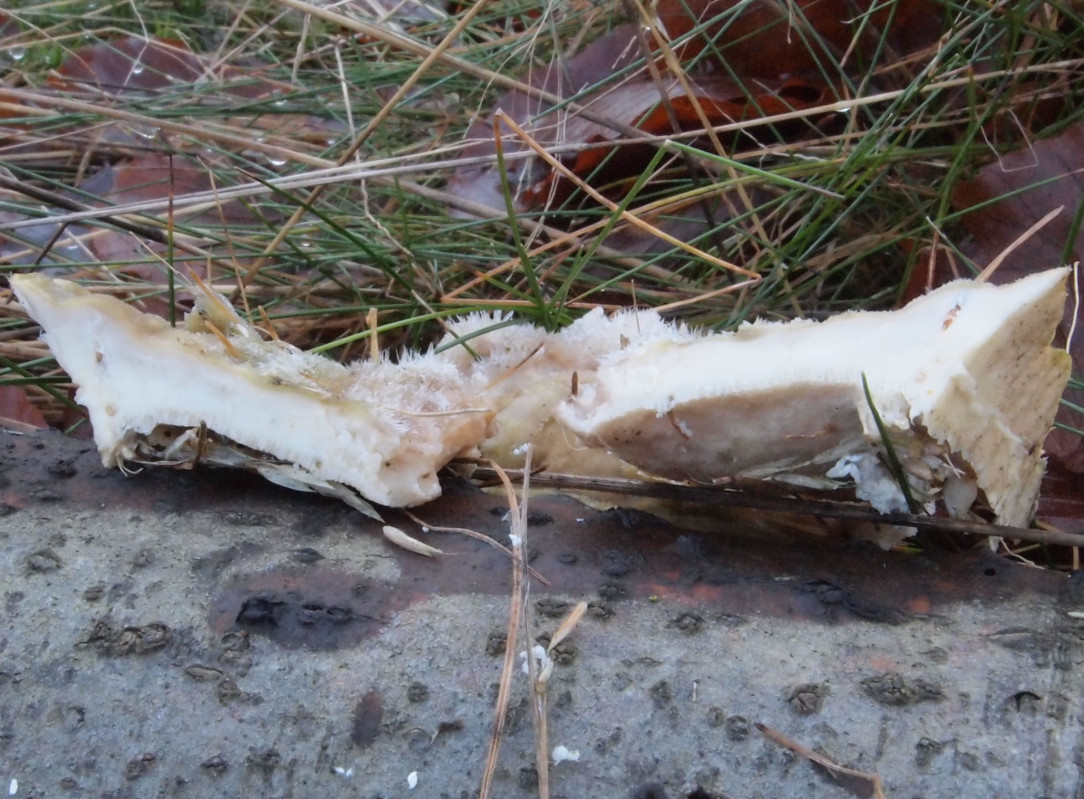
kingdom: Fungi
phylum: Basidiomycota
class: Agaricomycetes
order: Polyporales
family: Polyporaceae
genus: Trametes
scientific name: Trametes
